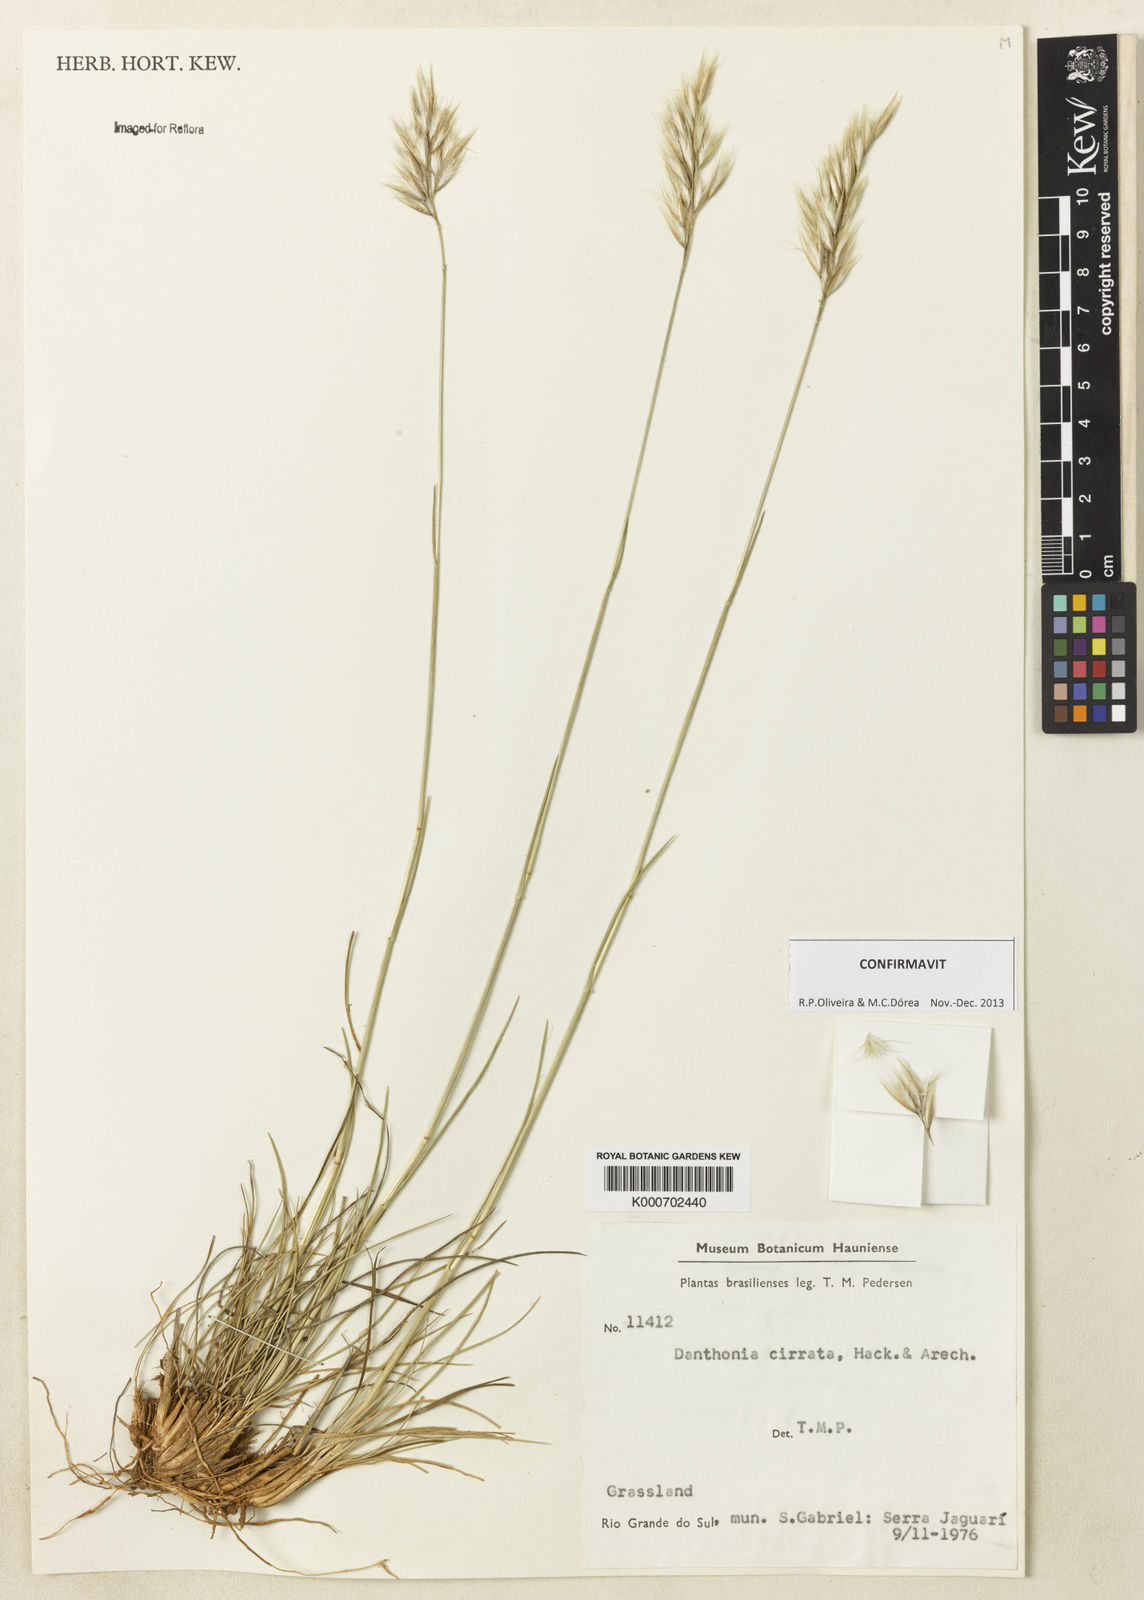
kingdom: Plantae
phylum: Tracheophyta
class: Liliopsida
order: Poales
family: Poaceae
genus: Danthonia
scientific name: Danthonia cirrata
